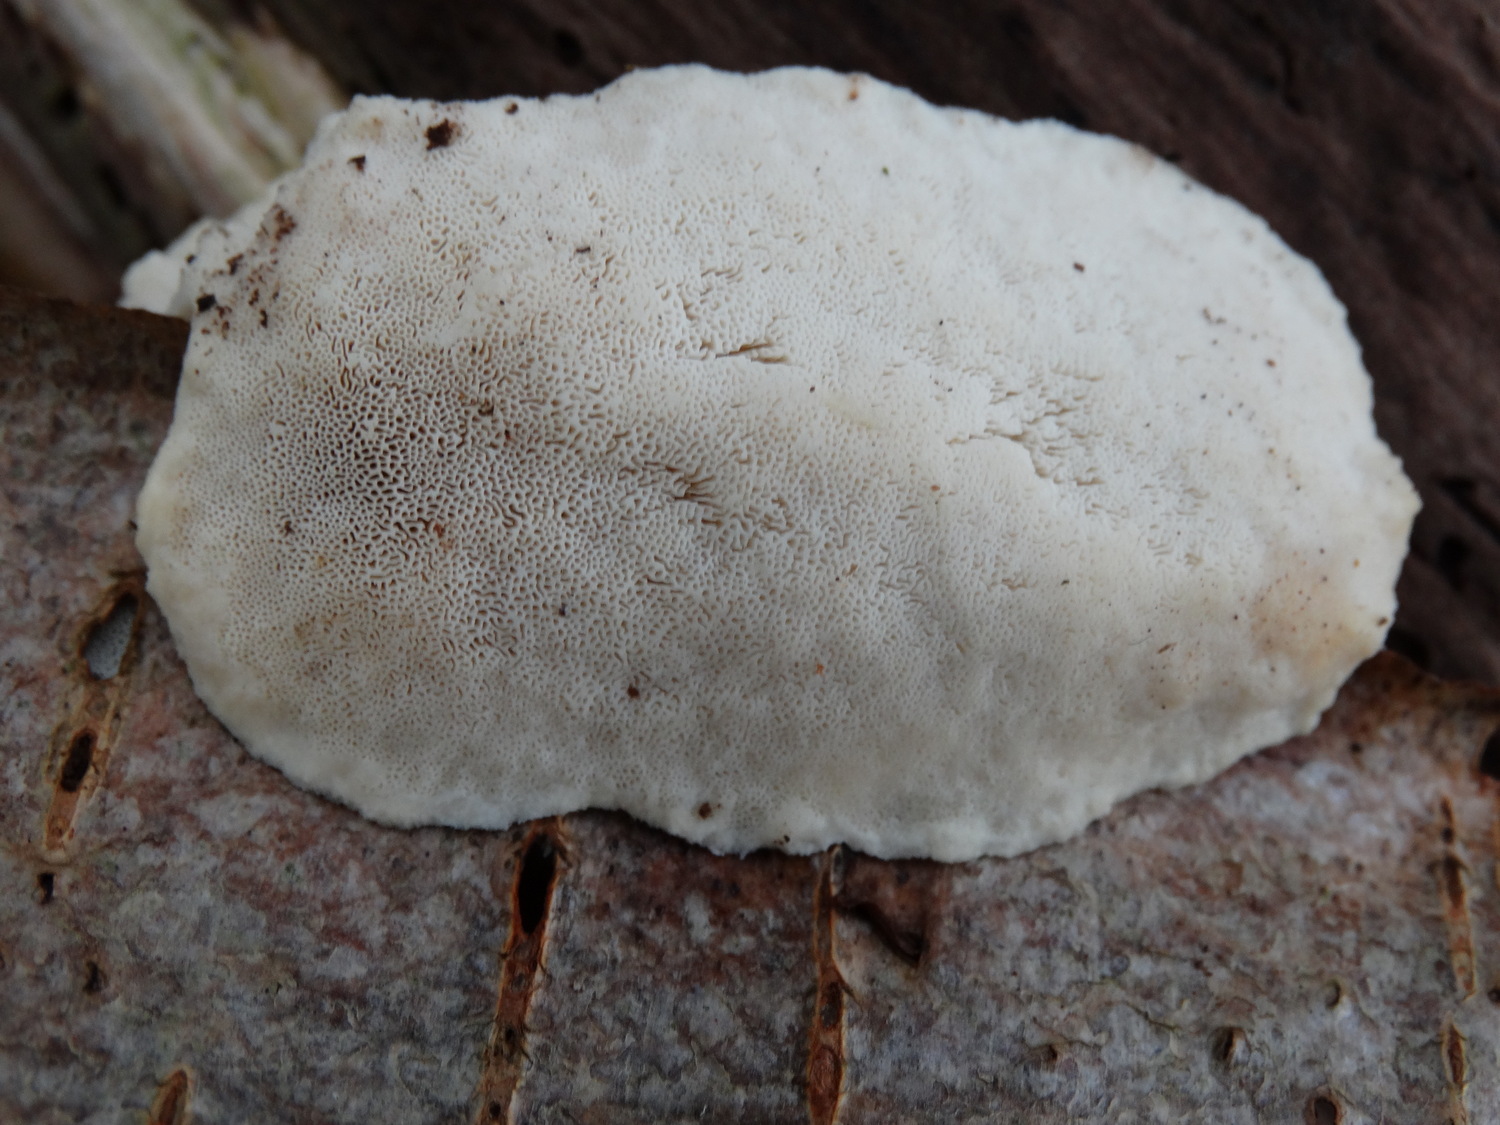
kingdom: Fungi
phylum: Basidiomycota
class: Agaricomycetes
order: Polyporales
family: Incrustoporiaceae
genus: Tyromyces
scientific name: Tyromyces lacteus
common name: mælkehvid kødporesvamp
